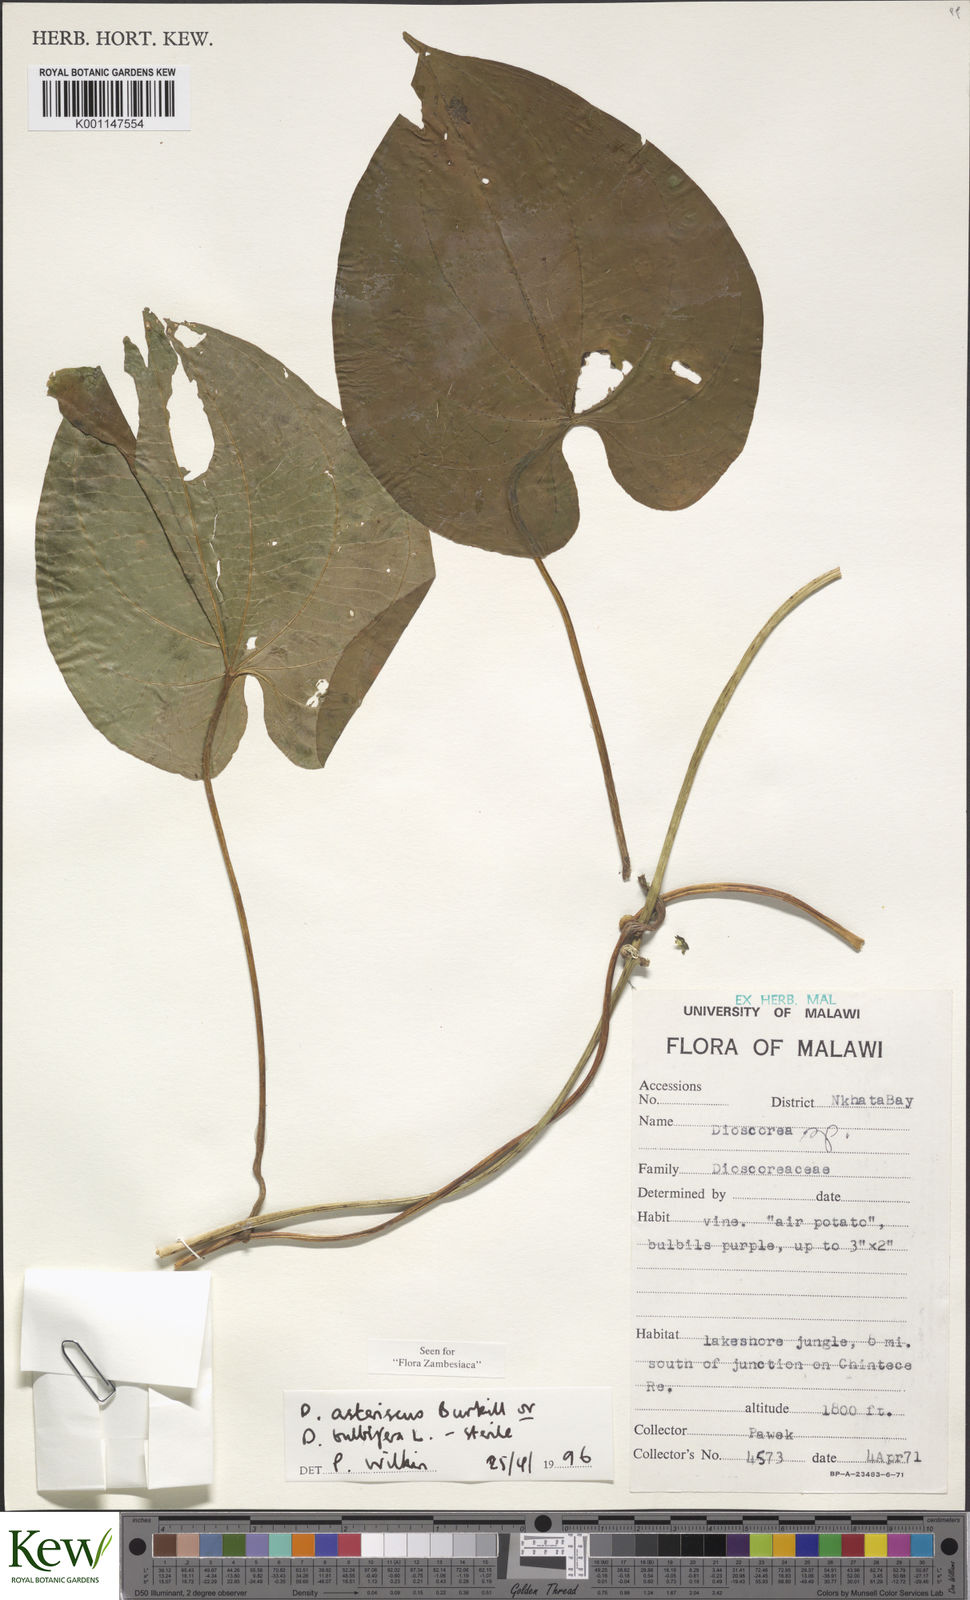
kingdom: Plantae
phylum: Tracheophyta
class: Liliopsida
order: Dioscoreales
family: Dioscoreaceae
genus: Dioscorea
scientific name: Dioscorea asteriscus
